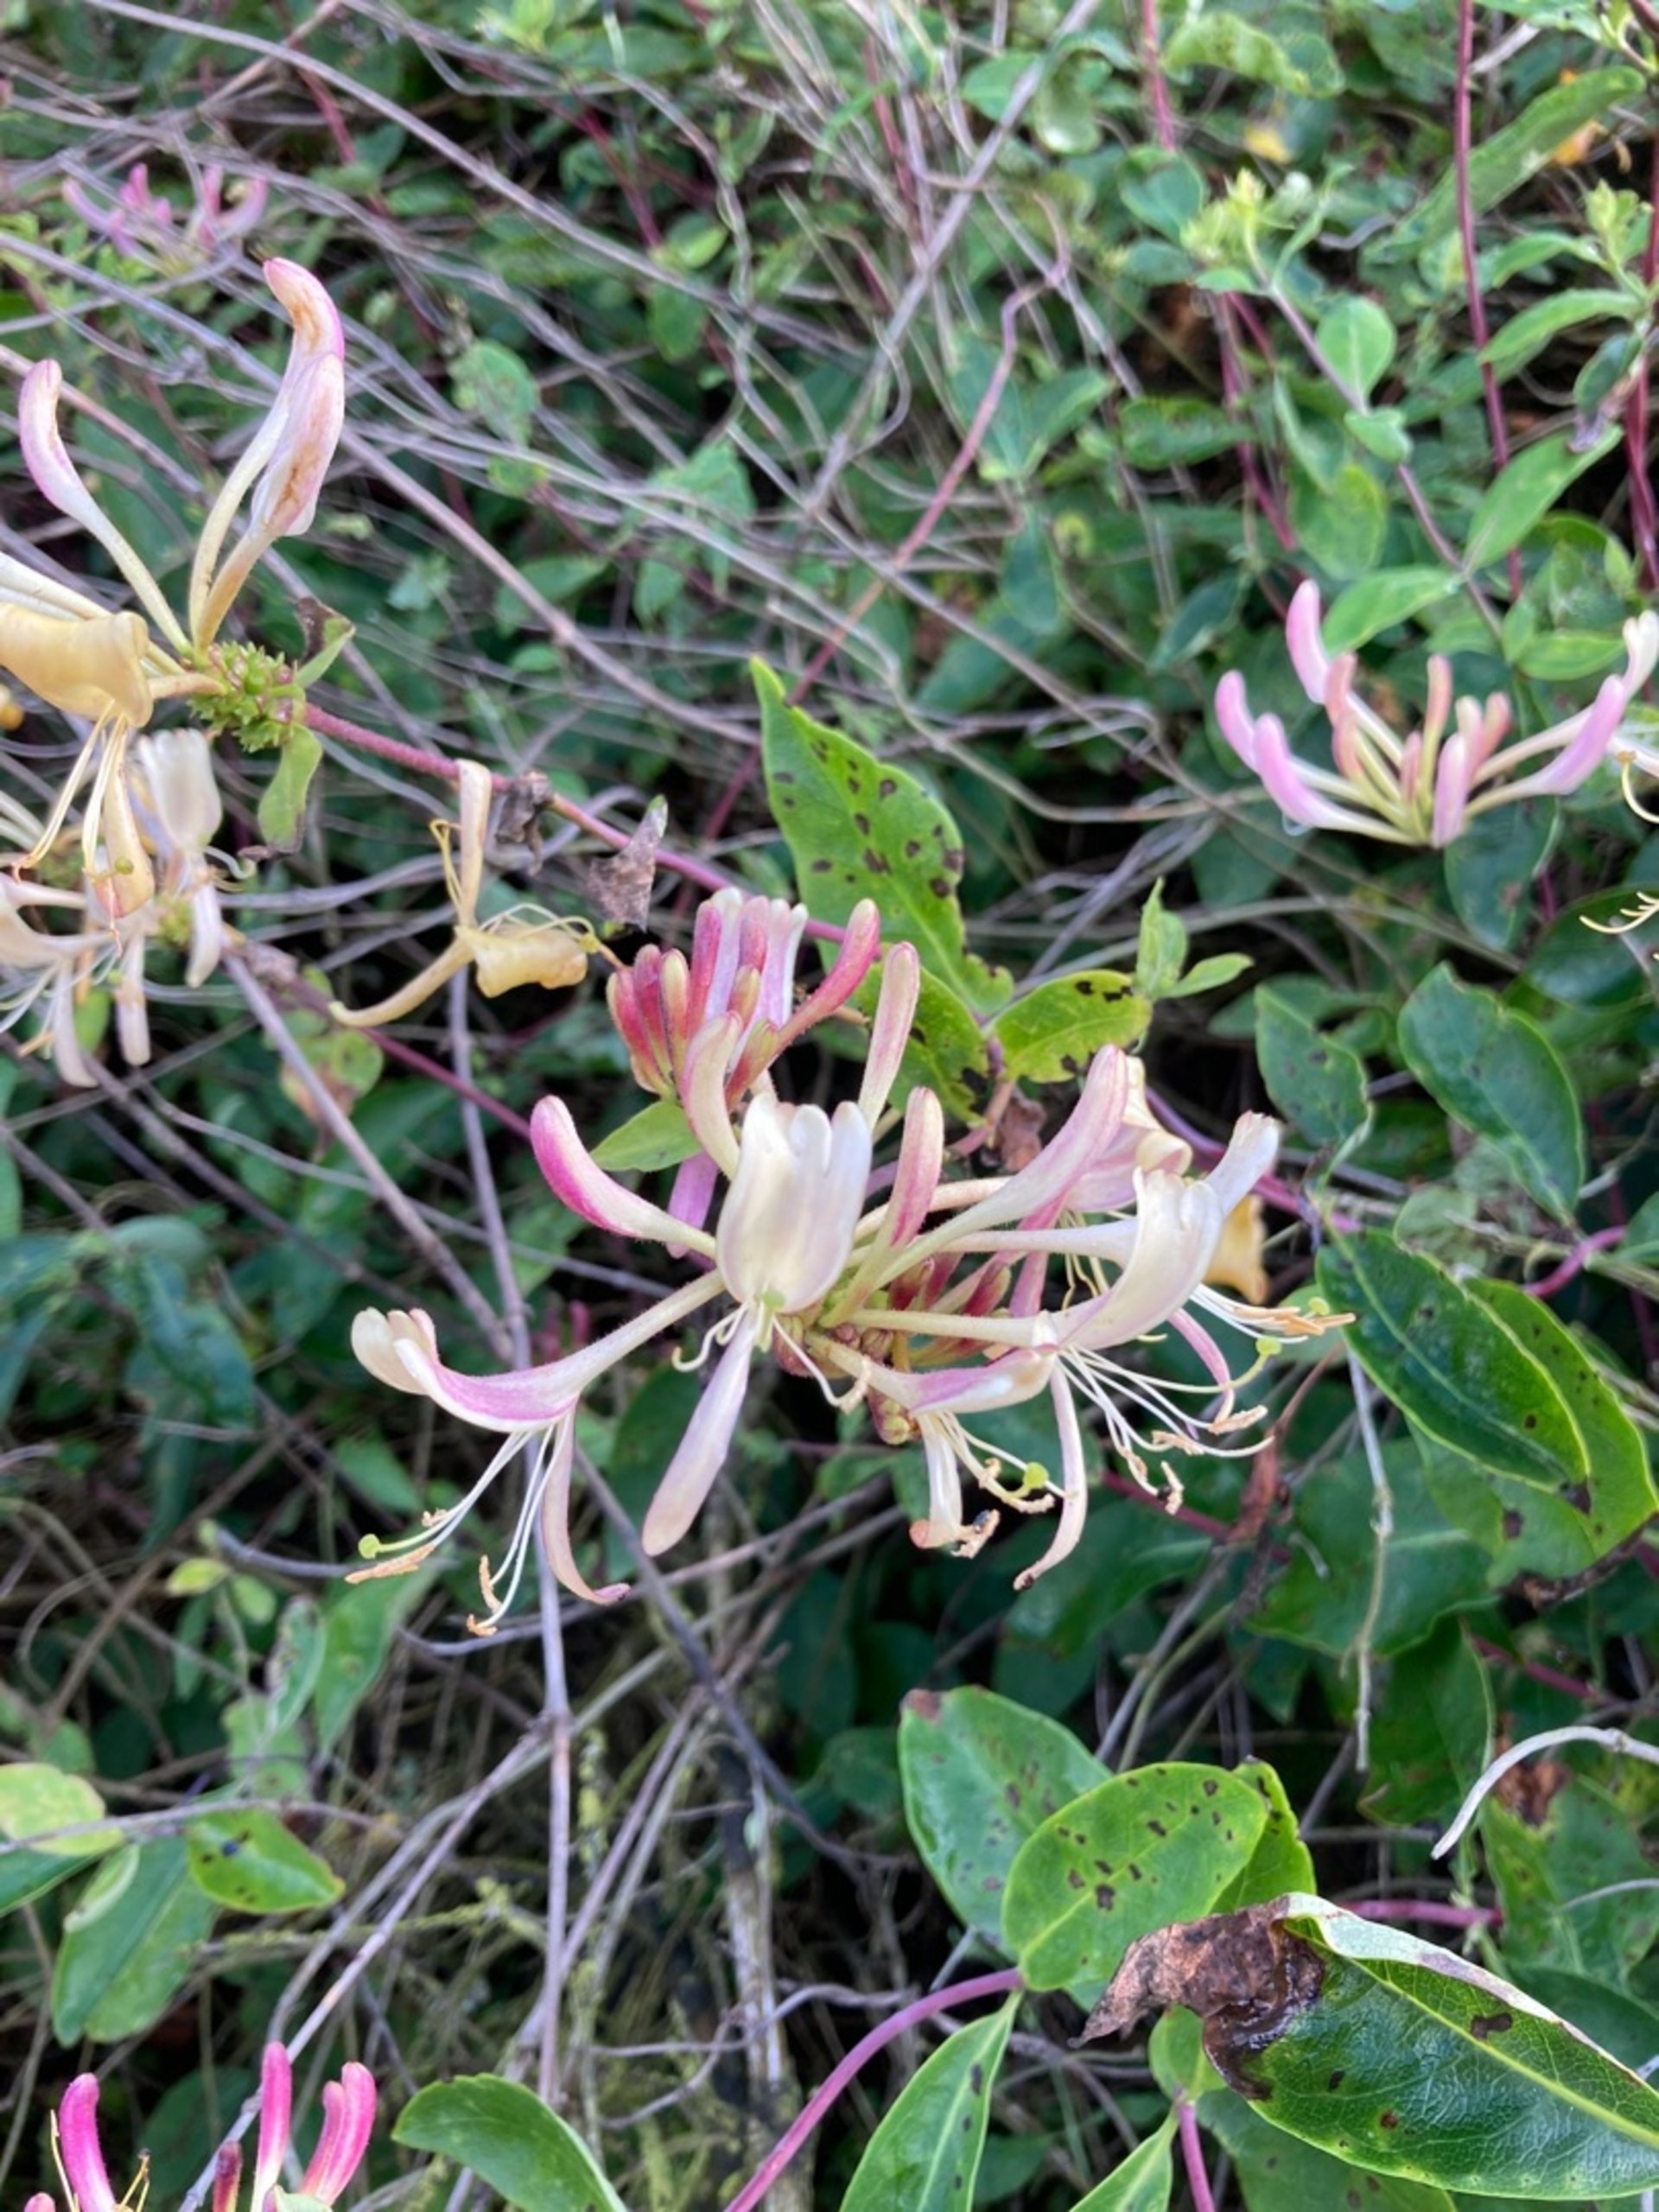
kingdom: Plantae
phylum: Tracheophyta
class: Magnoliopsida
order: Dipsacales
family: Caprifoliaceae
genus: Lonicera
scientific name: Lonicera periclymenum
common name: Almindelig gedeblad
